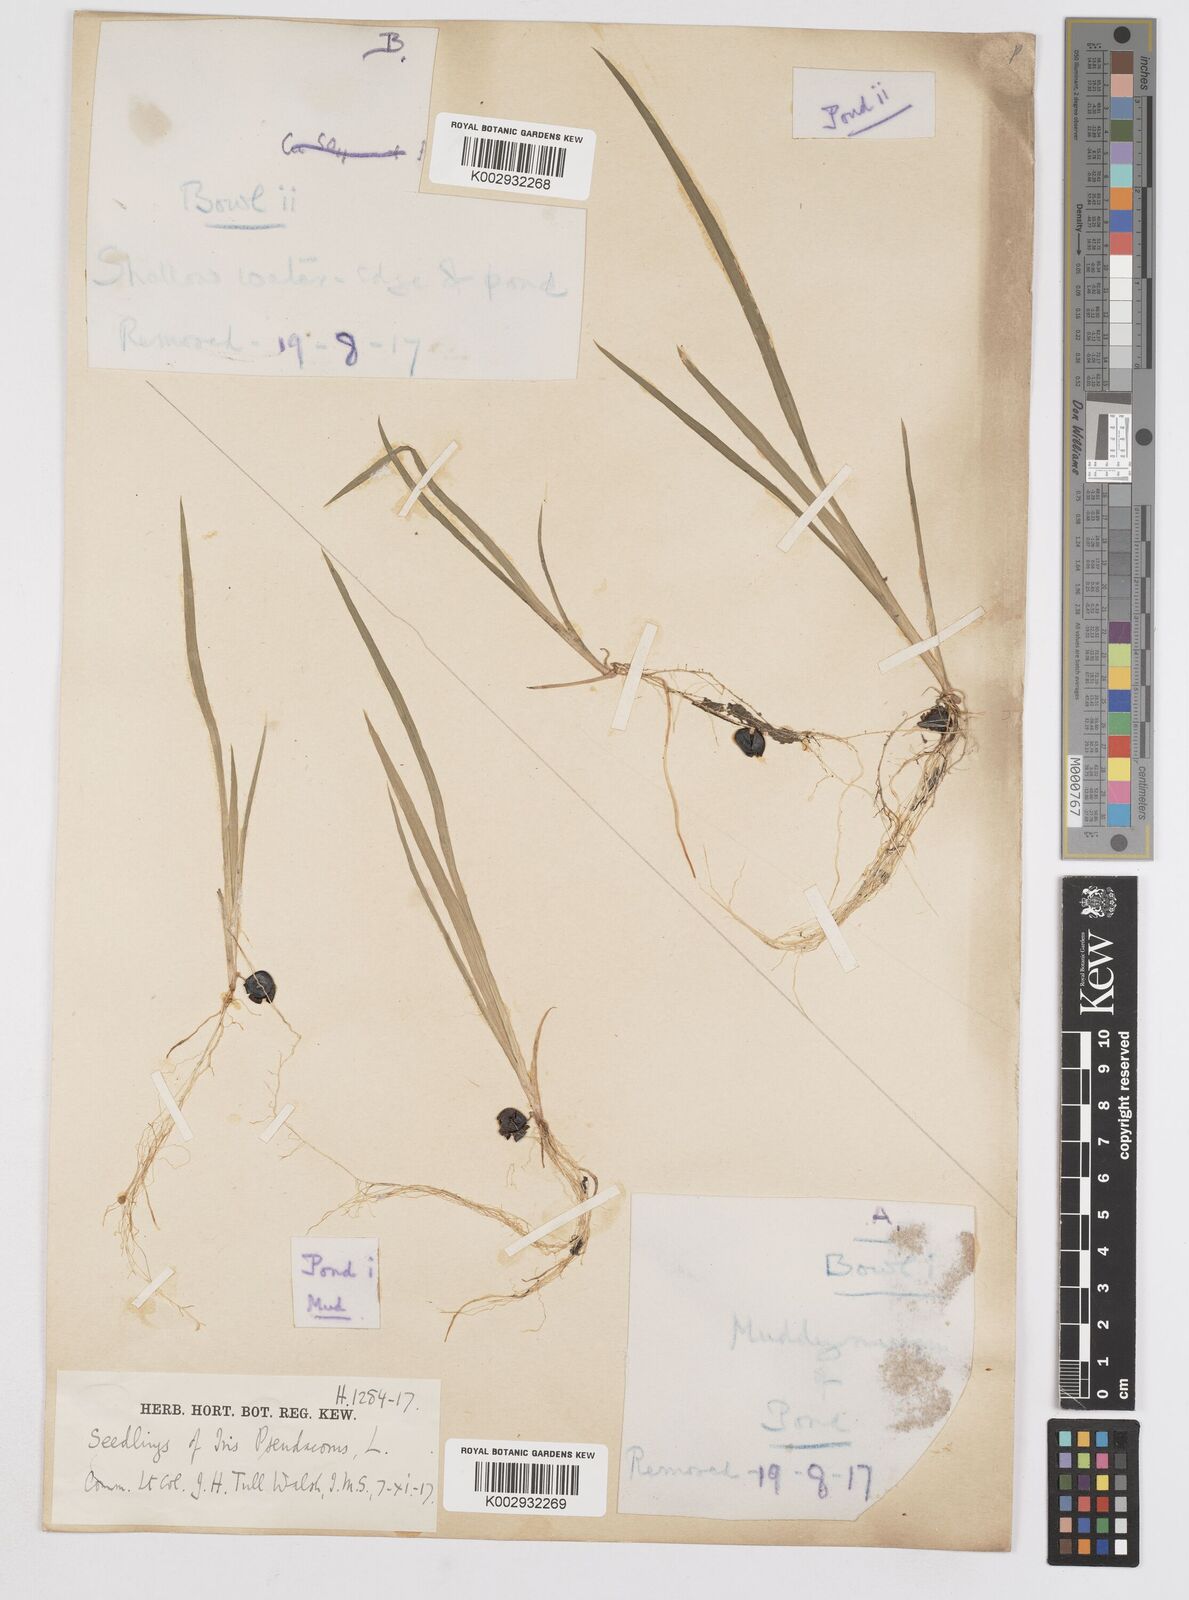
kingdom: Plantae
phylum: Tracheophyta
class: Liliopsida
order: Asparagales
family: Iridaceae
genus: Iris
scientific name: Iris pseudacorus
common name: Yellow flag
